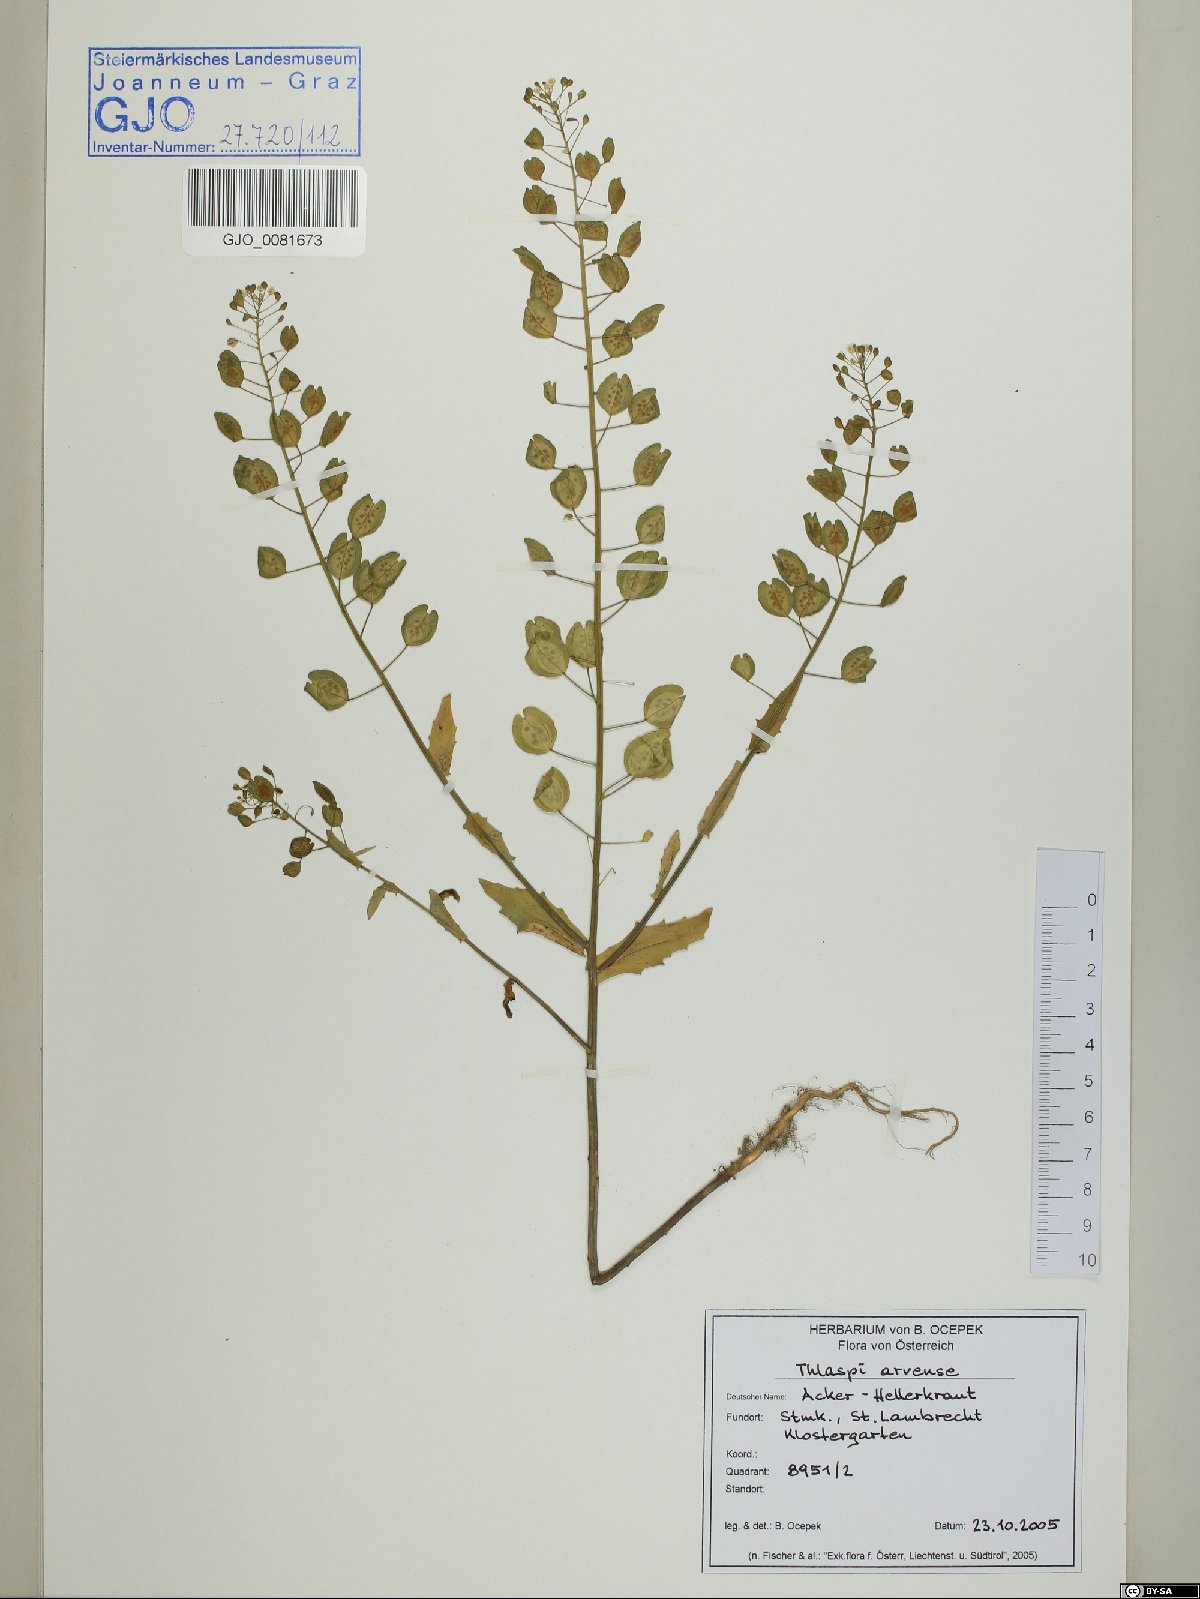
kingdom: Plantae
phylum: Tracheophyta
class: Magnoliopsida
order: Brassicales
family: Brassicaceae
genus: Thlaspi
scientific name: Thlaspi arvense
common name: Field pennycress
